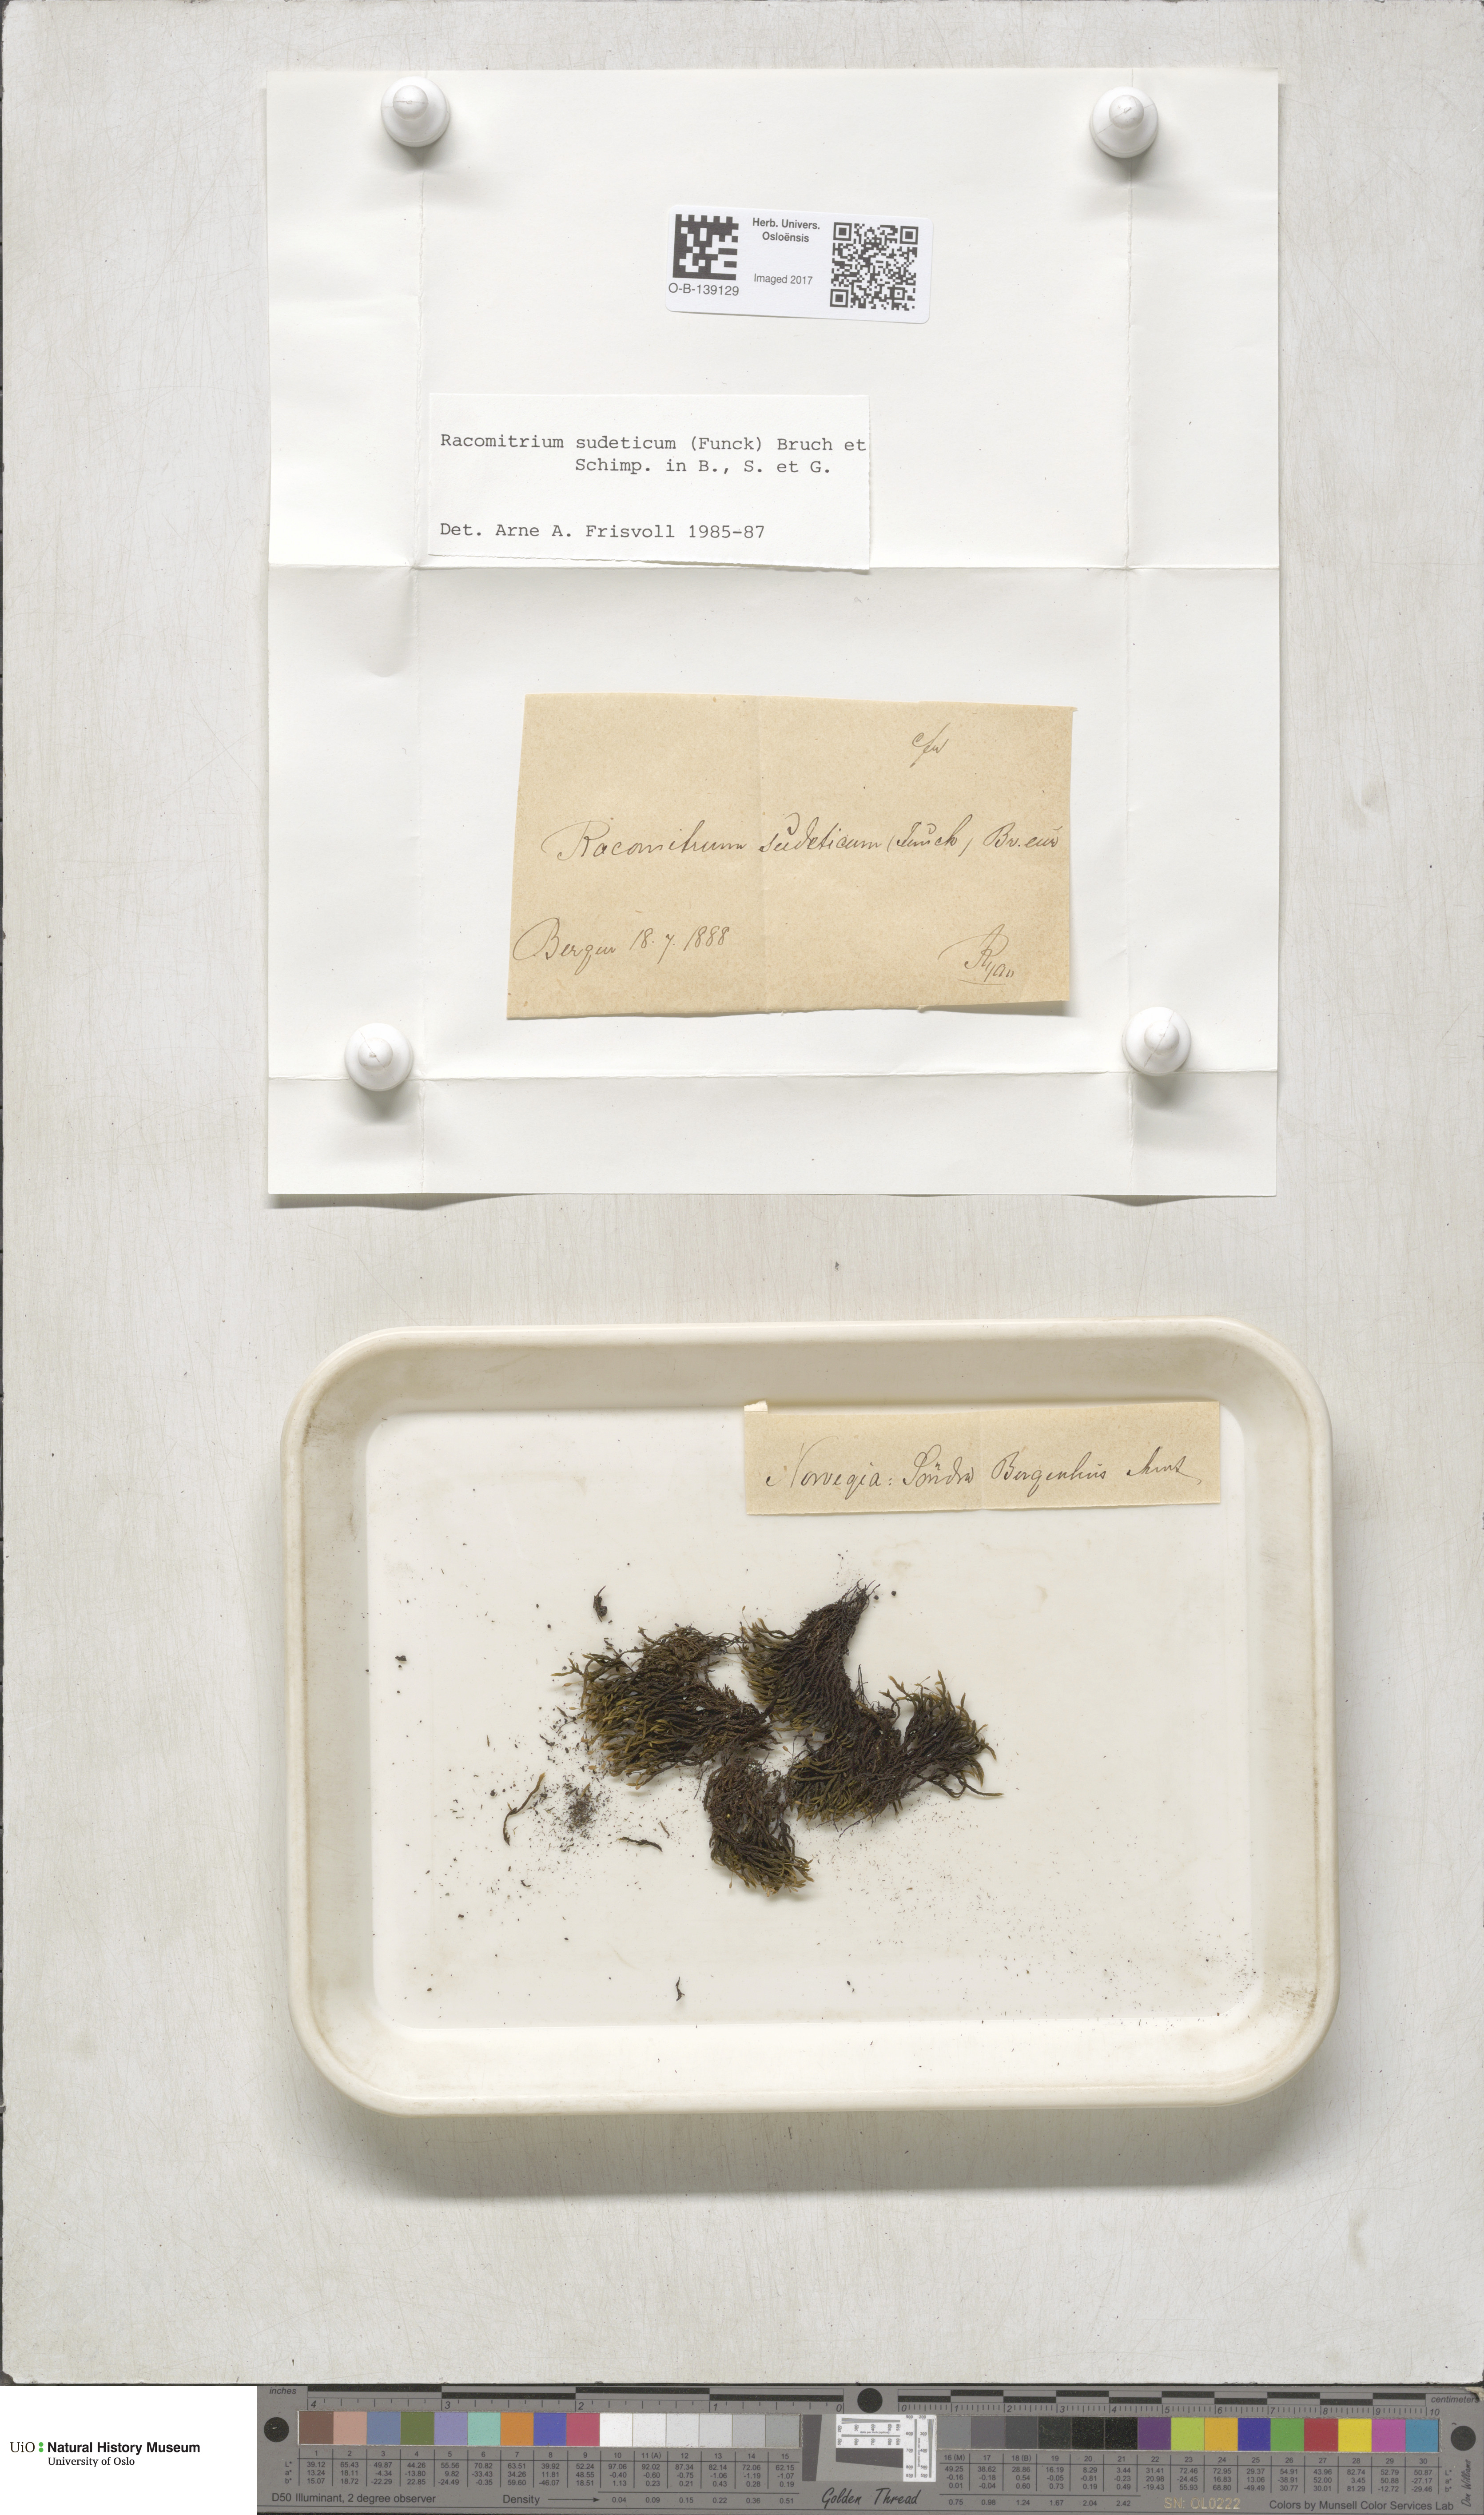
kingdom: Plantae
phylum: Bryophyta
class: Bryopsida
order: Grimmiales
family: Grimmiaceae
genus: Bucklandiella
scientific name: Bucklandiella sudetica
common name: Slender fringe-moss
